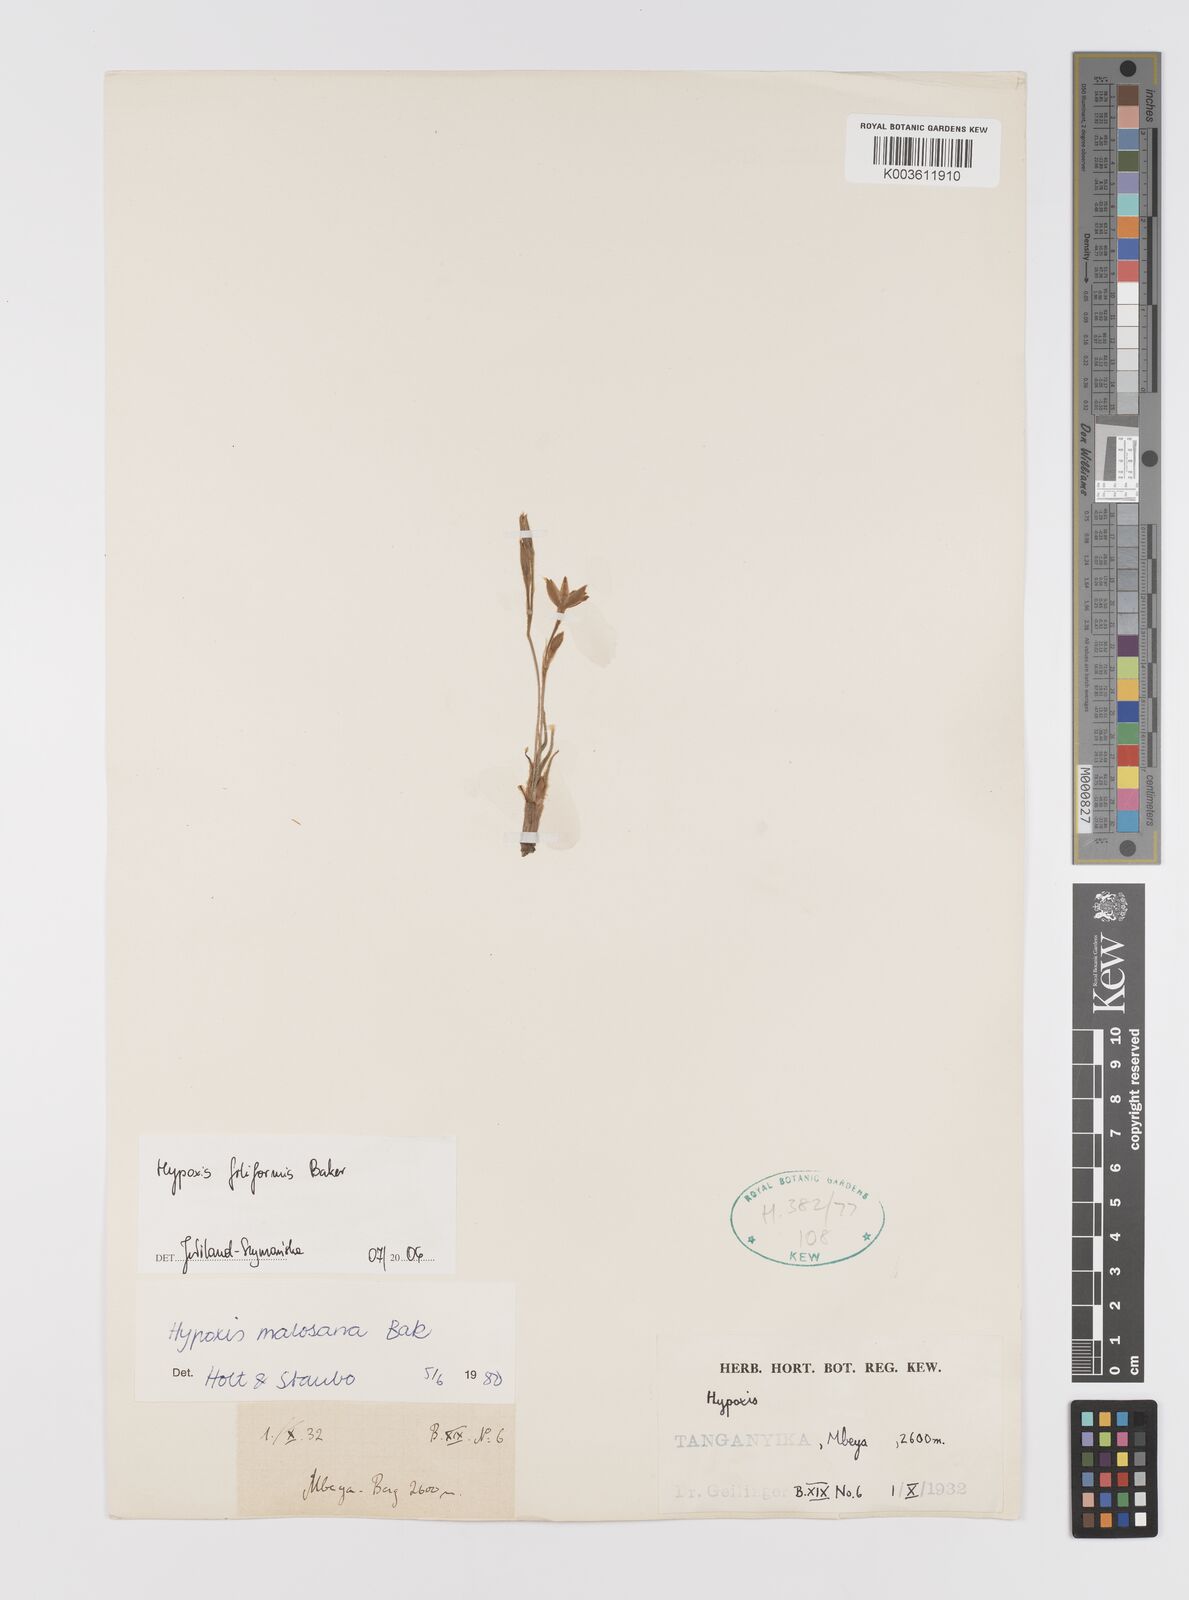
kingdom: Plantae
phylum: Tracheophyta
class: Liliopsida
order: Asparagales
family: Hypoxidaceae
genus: Hypoxis
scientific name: Hypoxis filiformis
